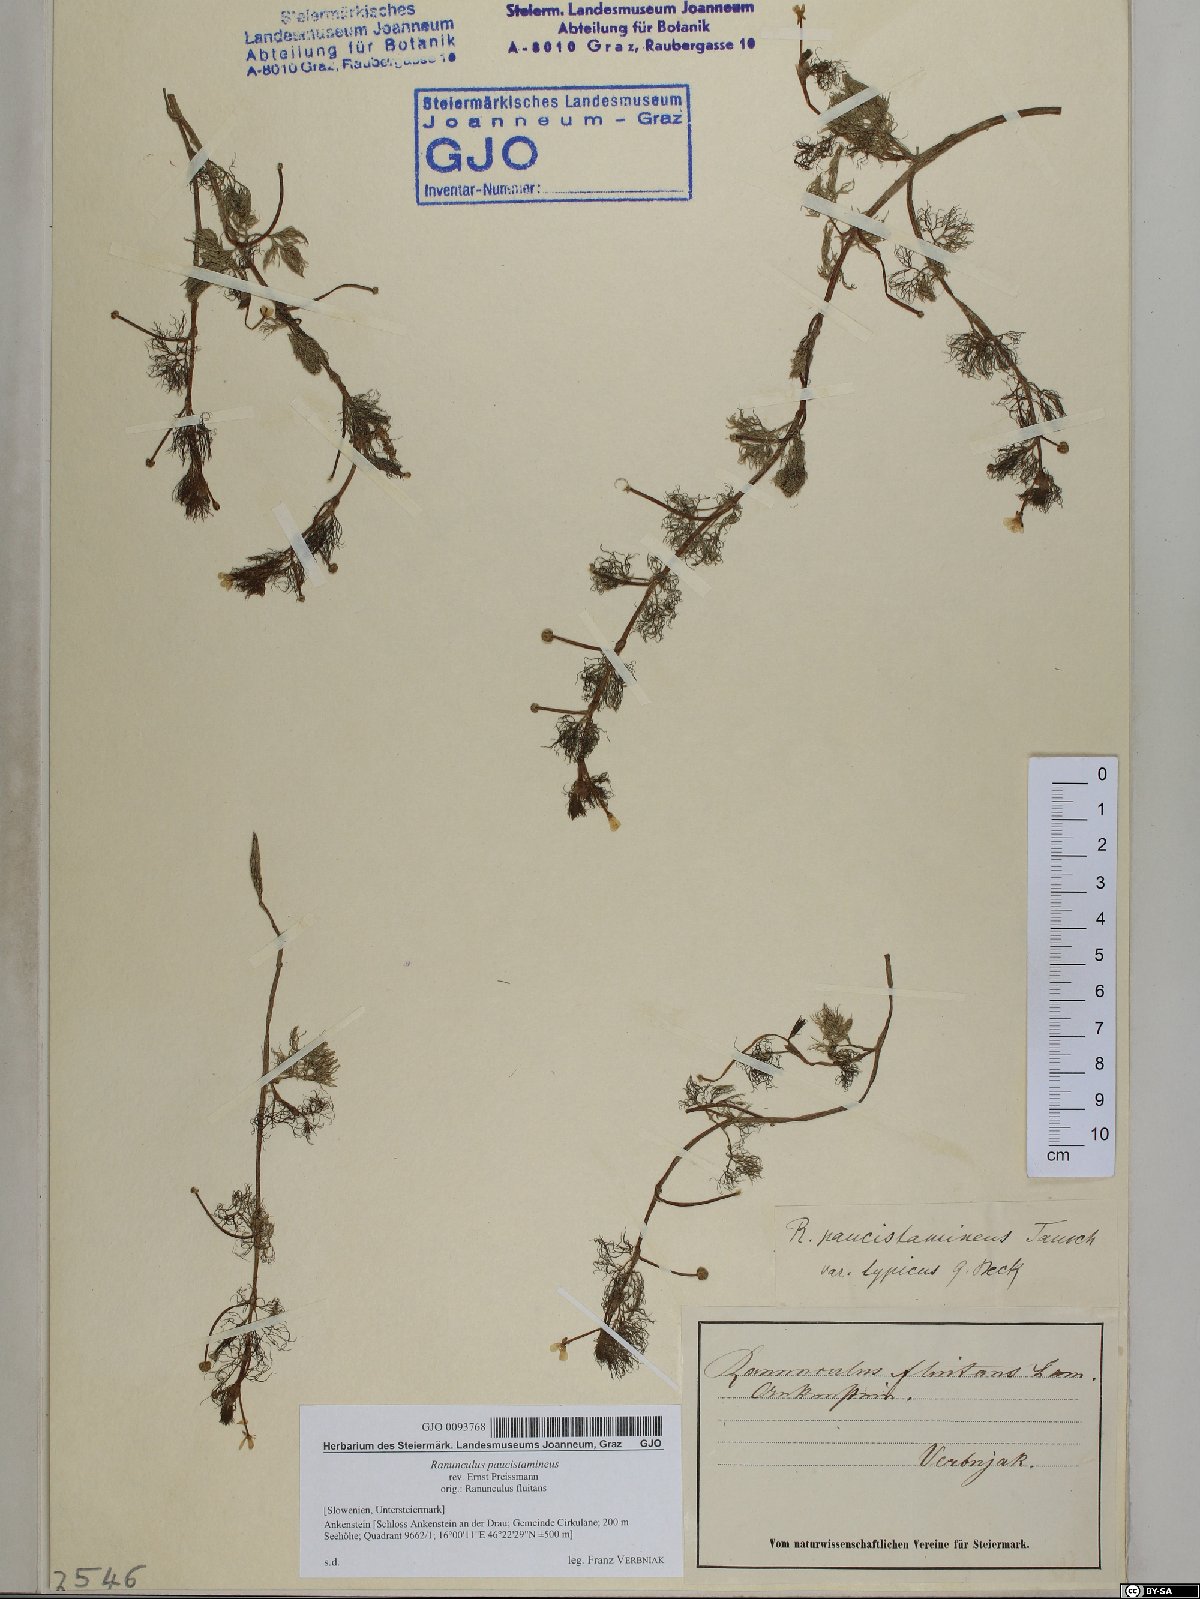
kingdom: Plantae
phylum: Tracheophyta
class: Magnoliopsida
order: Ranunculales
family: Ranunculaceae
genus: Ranunculus
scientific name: Ranunculus
